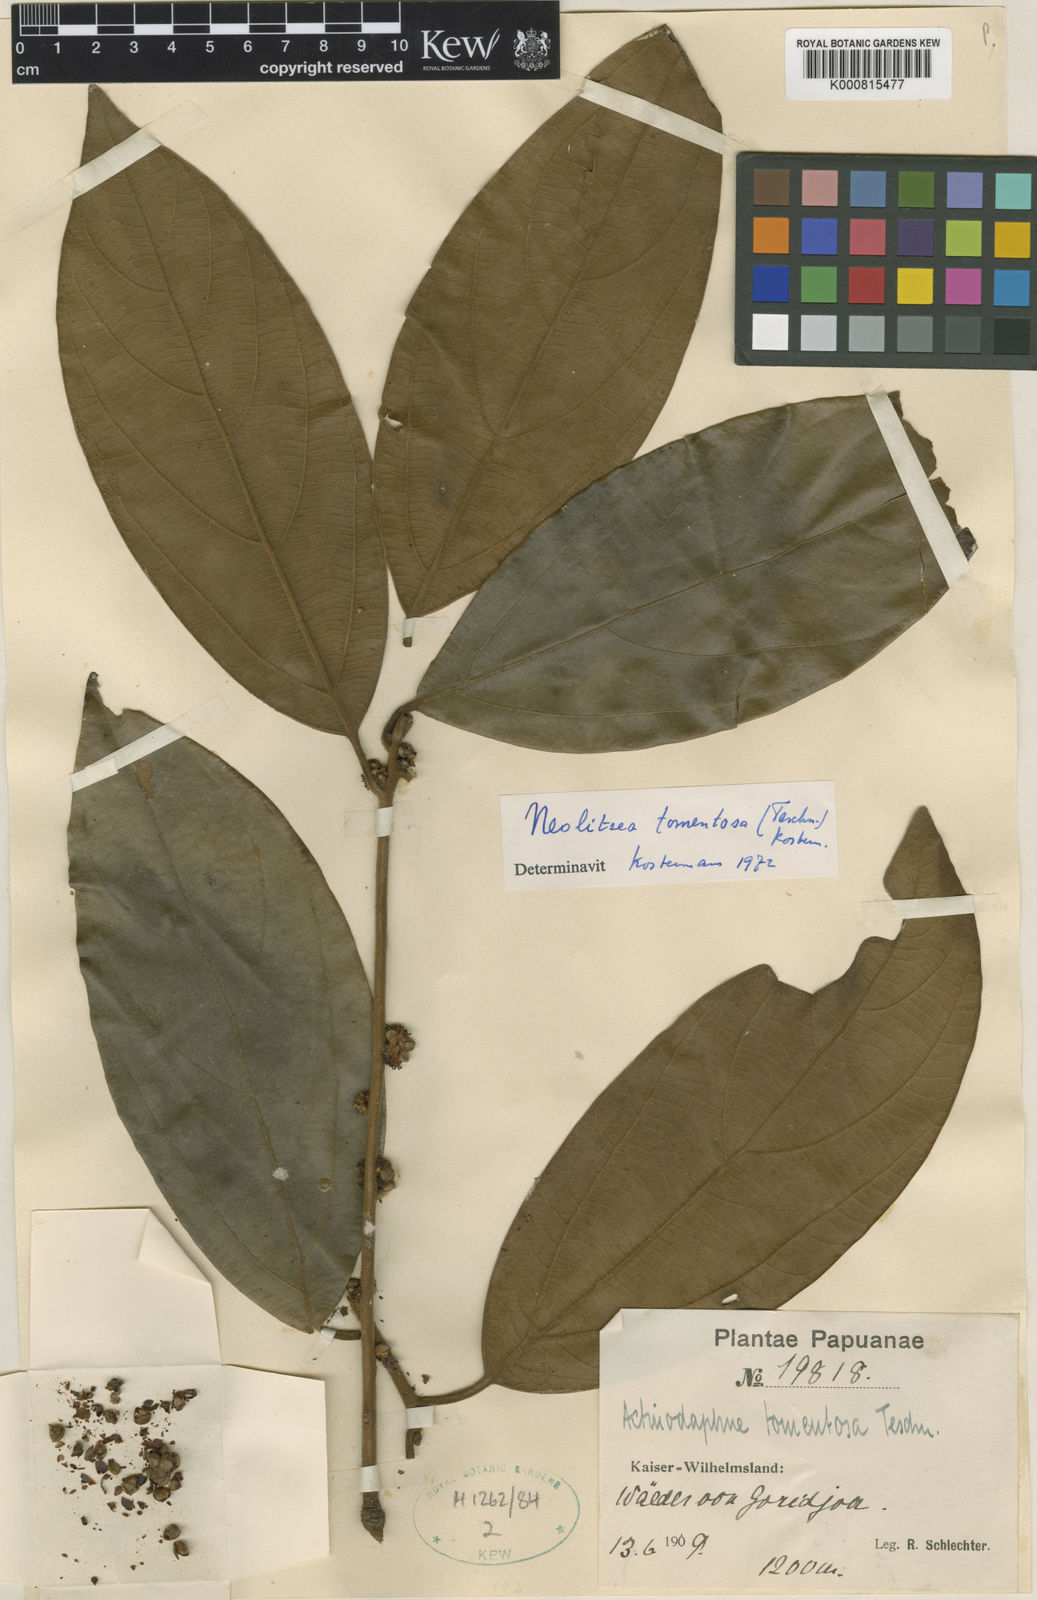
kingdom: Plantae
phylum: Tracheophyta
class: Magnoliopsida
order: Laurales
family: Lauraceae
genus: Neolitsea
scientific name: Neolitsea
